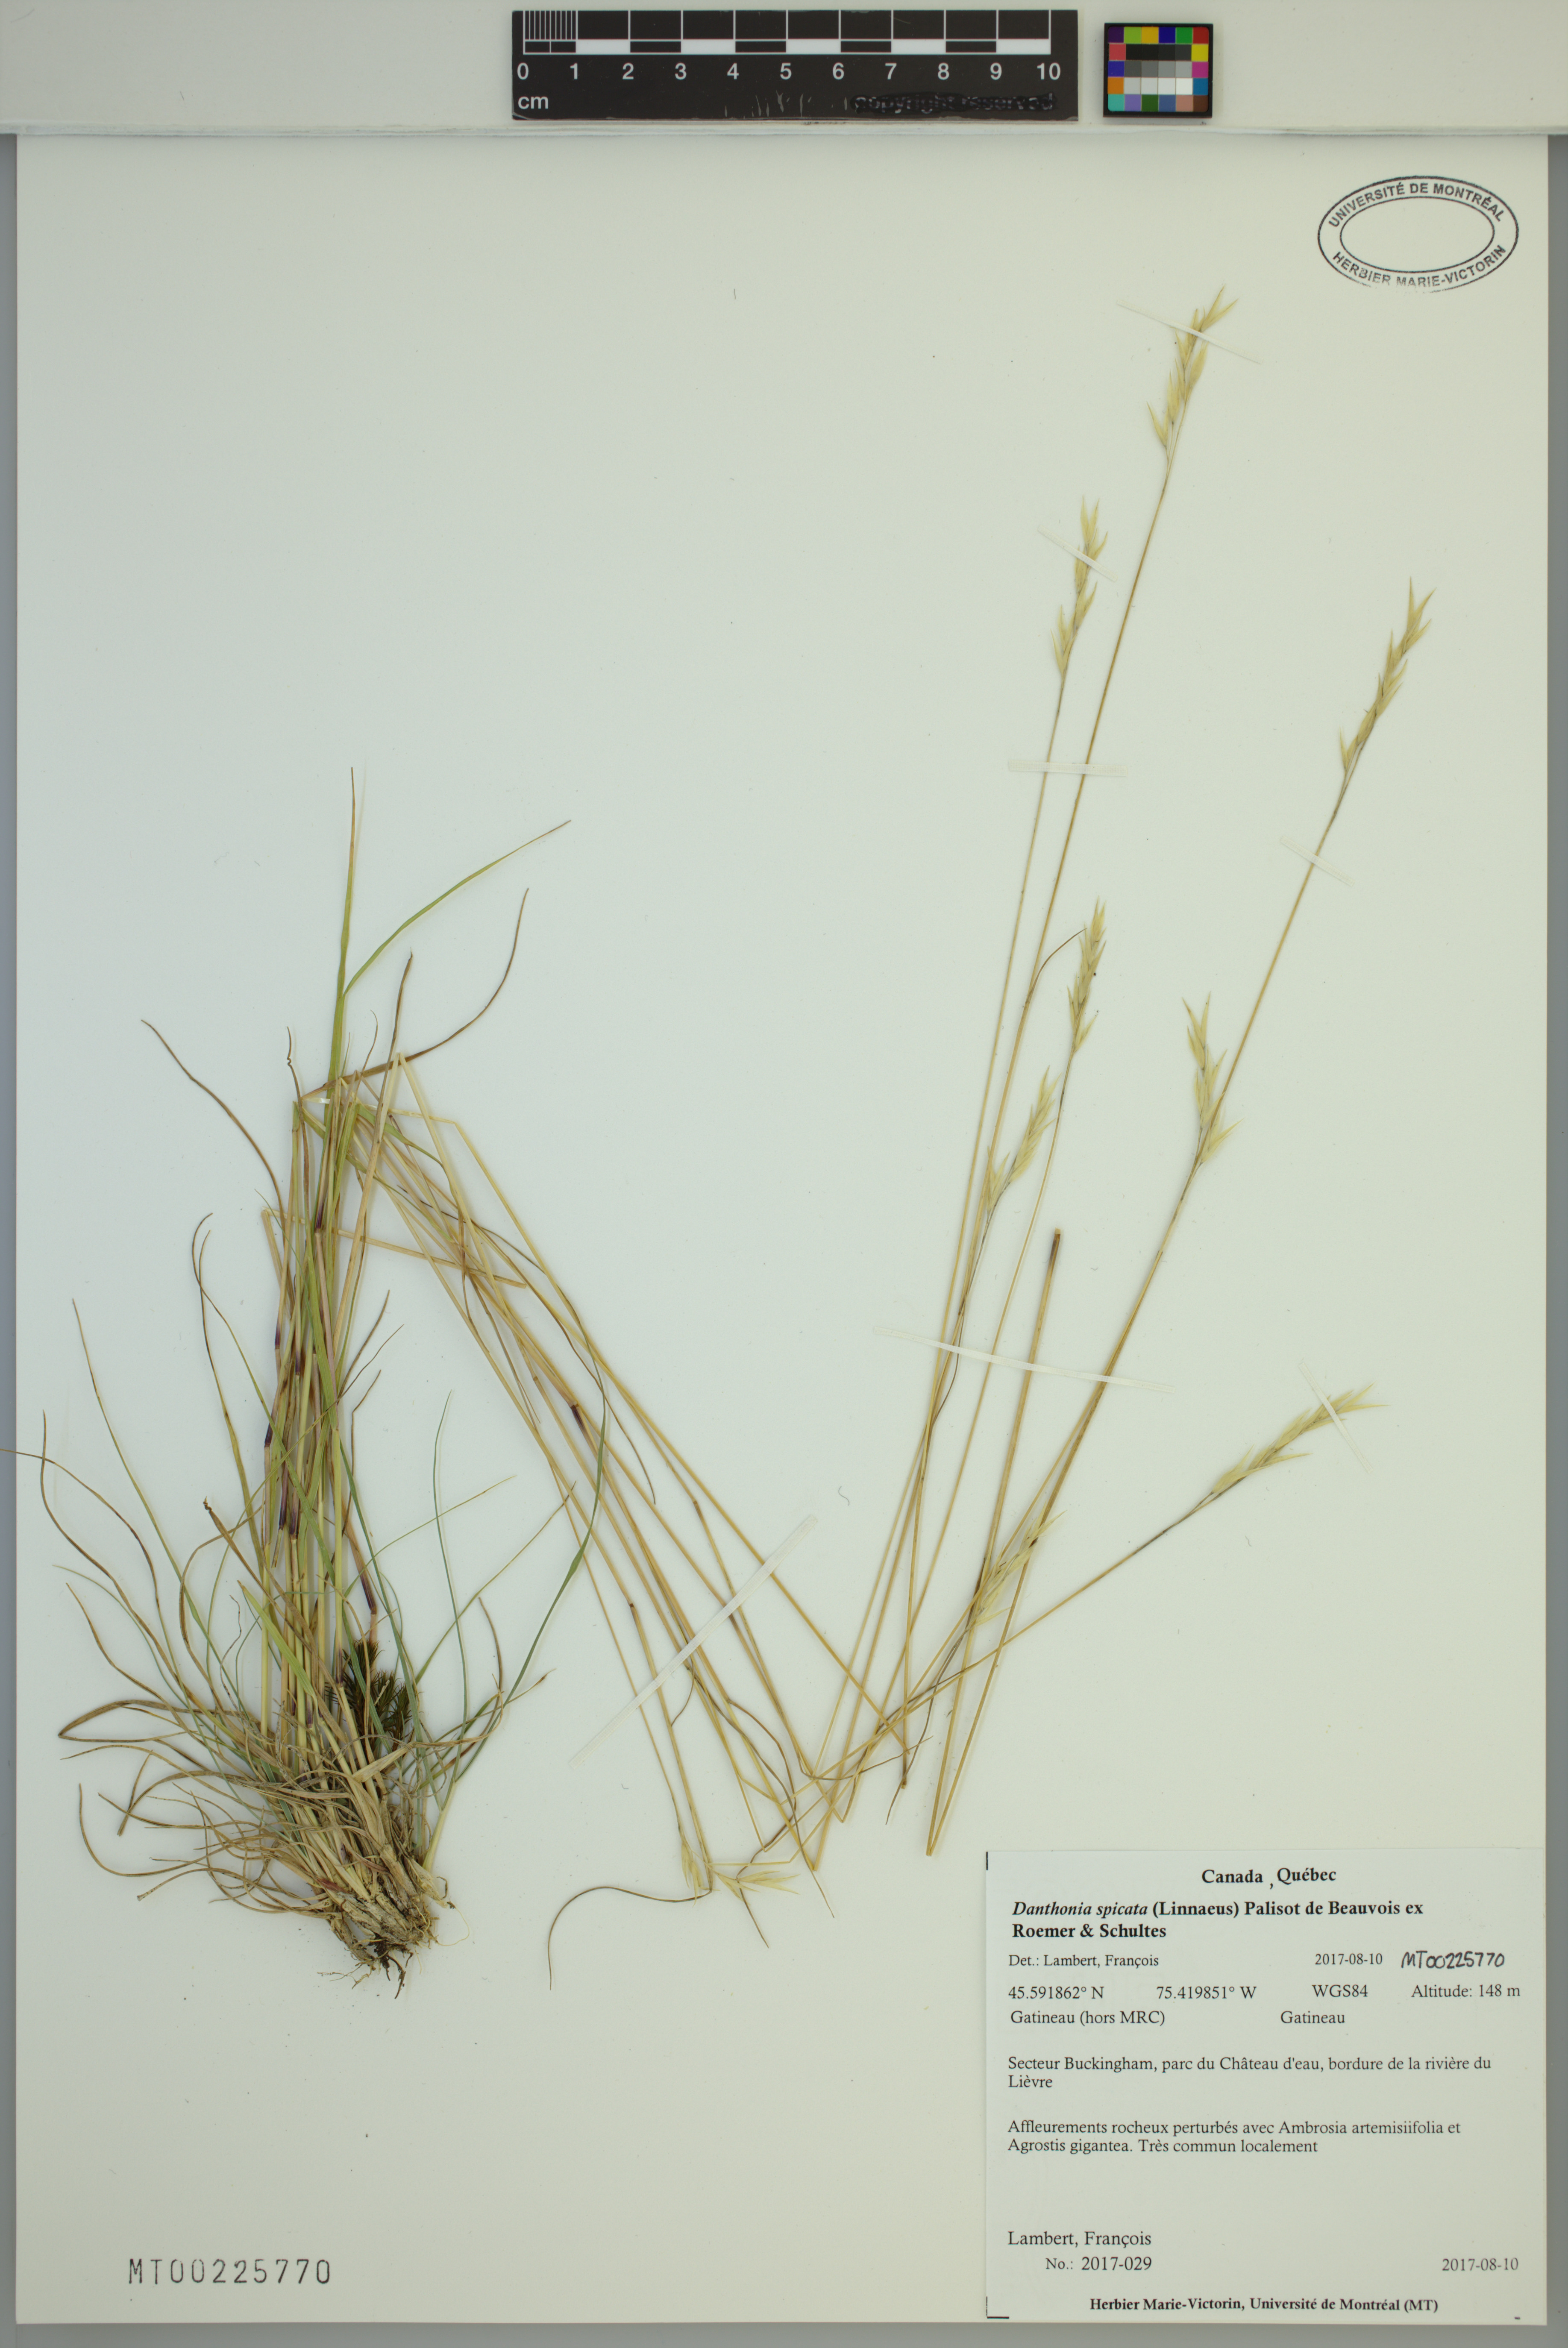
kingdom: Plantae
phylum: Tracheophyta
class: Liliopsida
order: Poales
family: Poaceae
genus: Danthonia
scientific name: Danthonia spicata
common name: Common wild oatgrass
